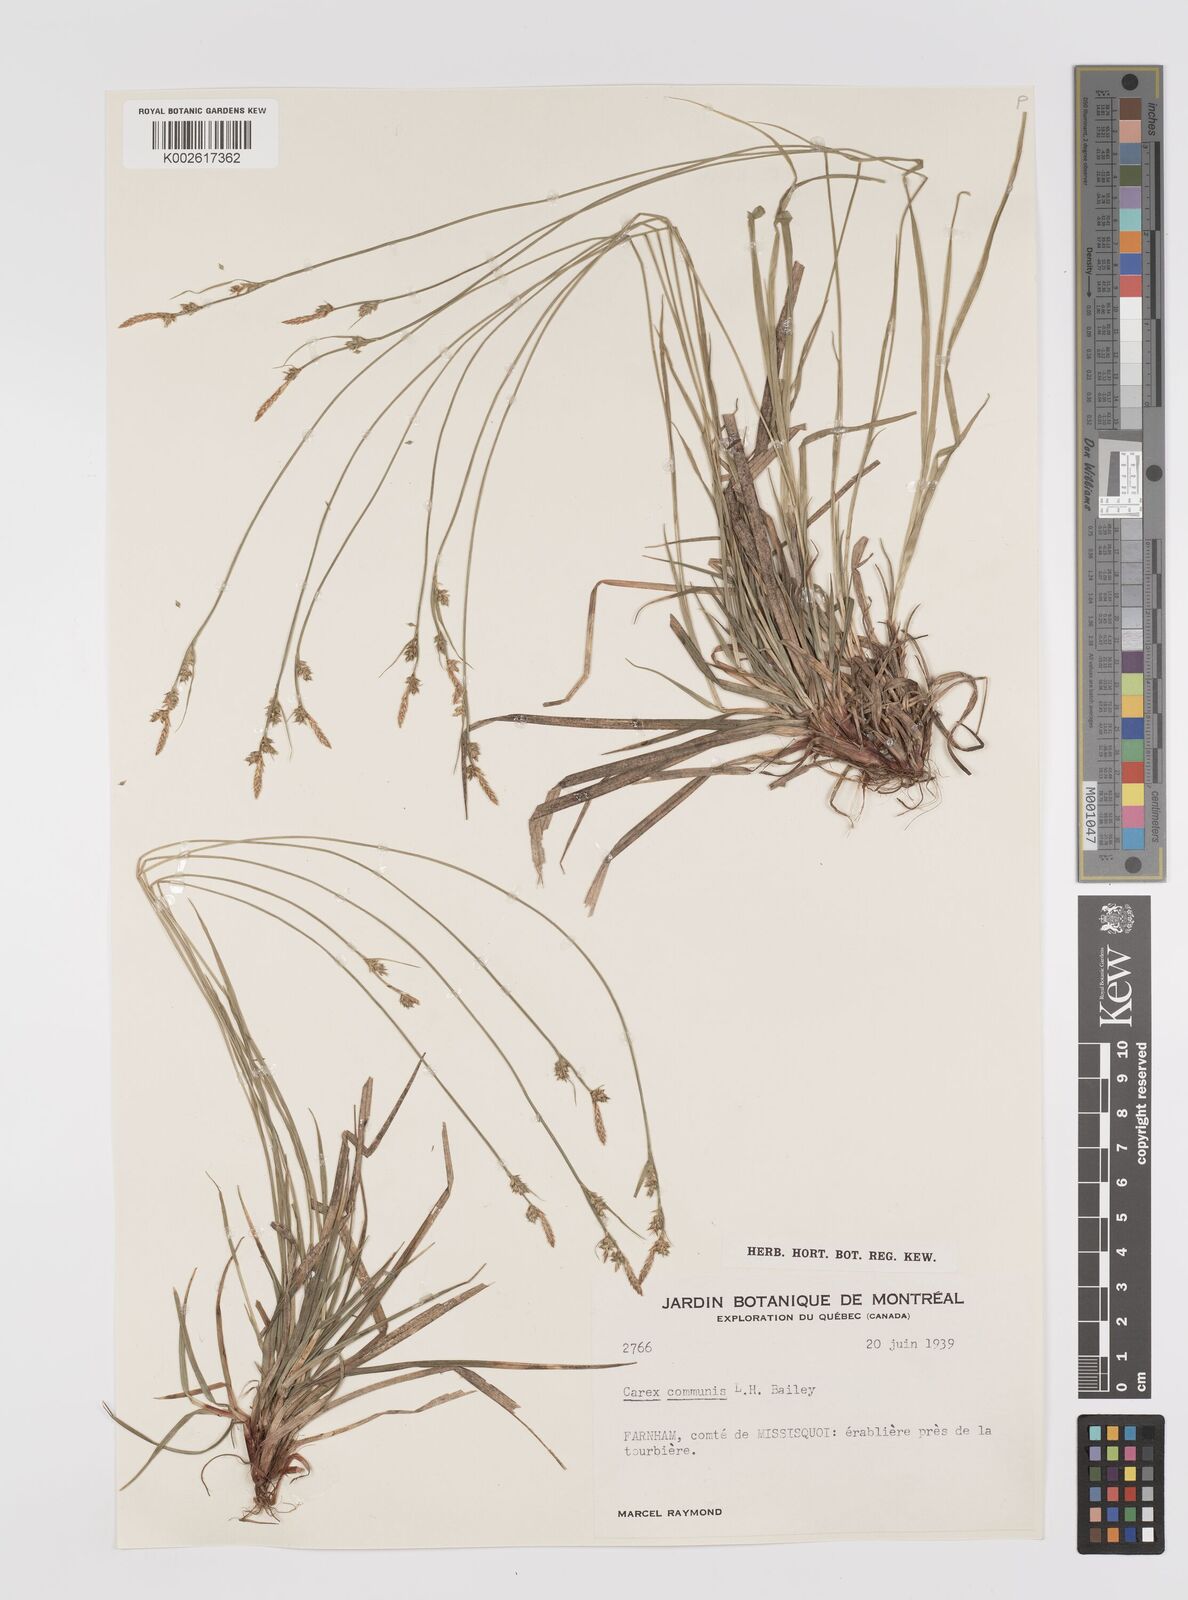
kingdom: Plantae
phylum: Tracheophyta
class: Liliopsida
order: Poales
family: Cyperaceae
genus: Carex
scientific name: Carex communis
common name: Colonial oak sedge
